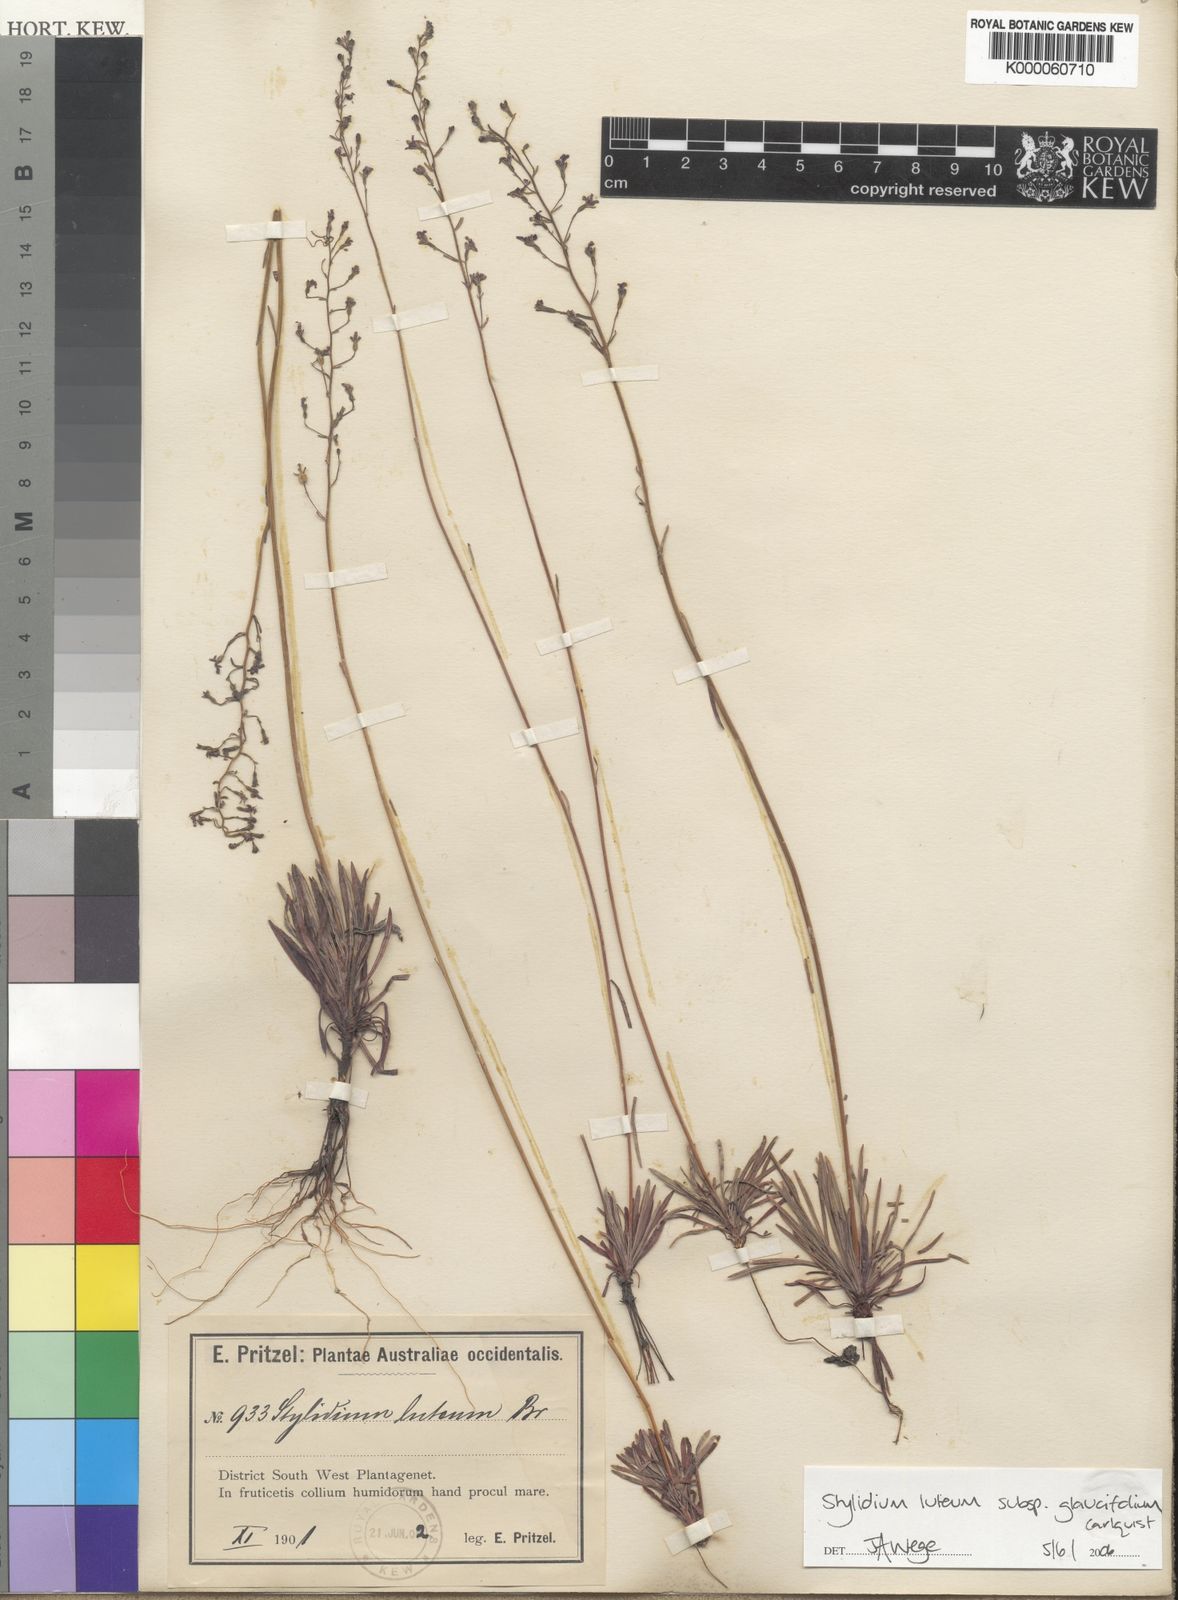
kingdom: Plantae
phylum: Tracheophyta
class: Magnoliopsida
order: Asterales
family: Stylidiaceae
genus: Stylidium
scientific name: Stylidium
